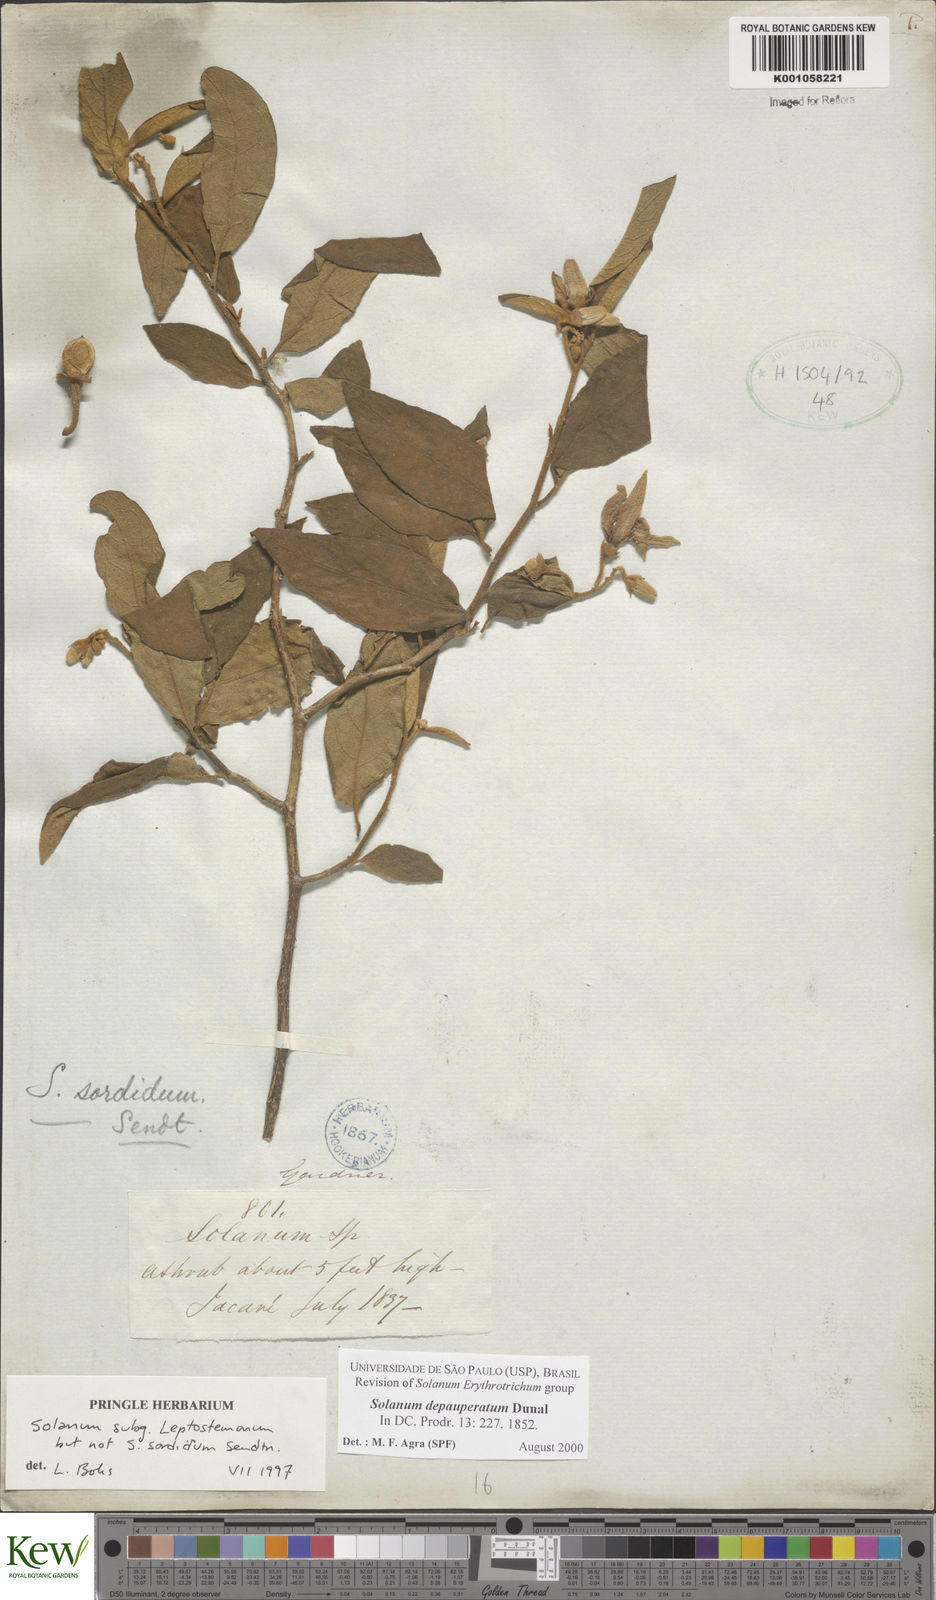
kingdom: Plantae
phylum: Tracheophyta
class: Magnoliopsida
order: Solanales
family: Solanaceae
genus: Solanum
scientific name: Solanum depauperatum
